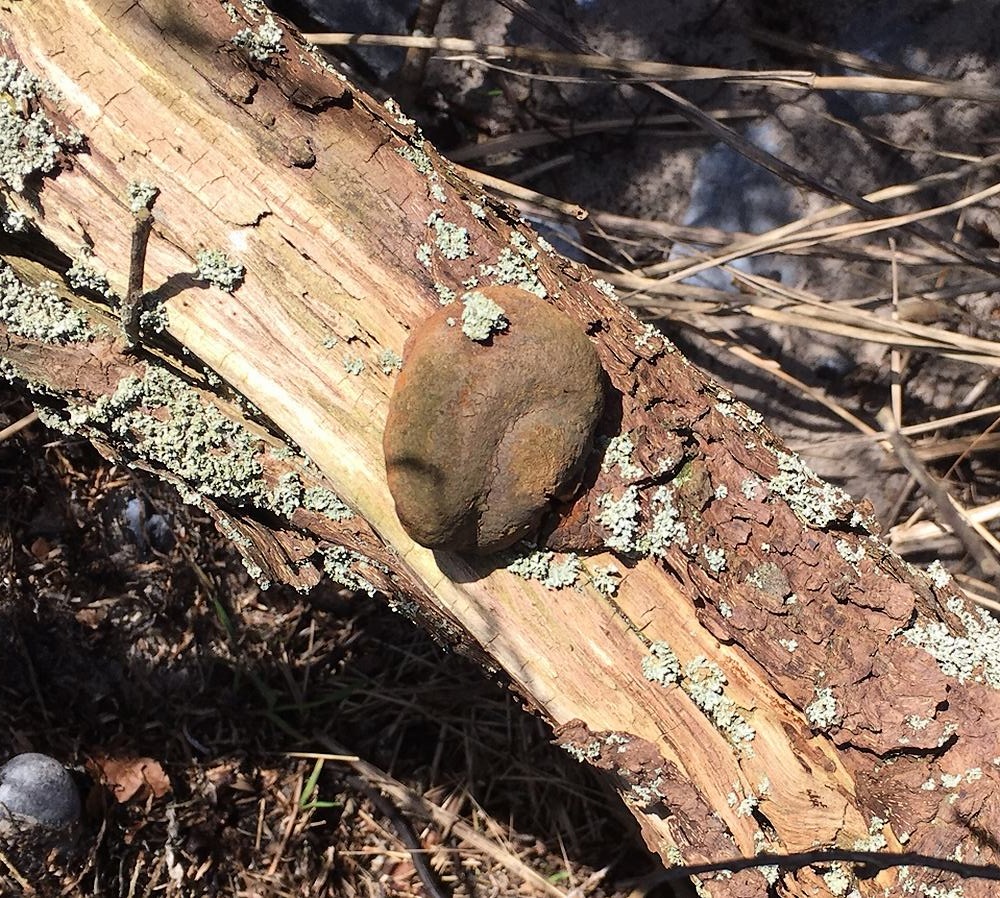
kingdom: Fungi
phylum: Basidiomycota
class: Agaricomycetes
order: Hymenochaetales
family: Hymenochaetaceae
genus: Fomitiporia
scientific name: Fomitiporia hippophaeicola
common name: havtorn-ildporesvamp
